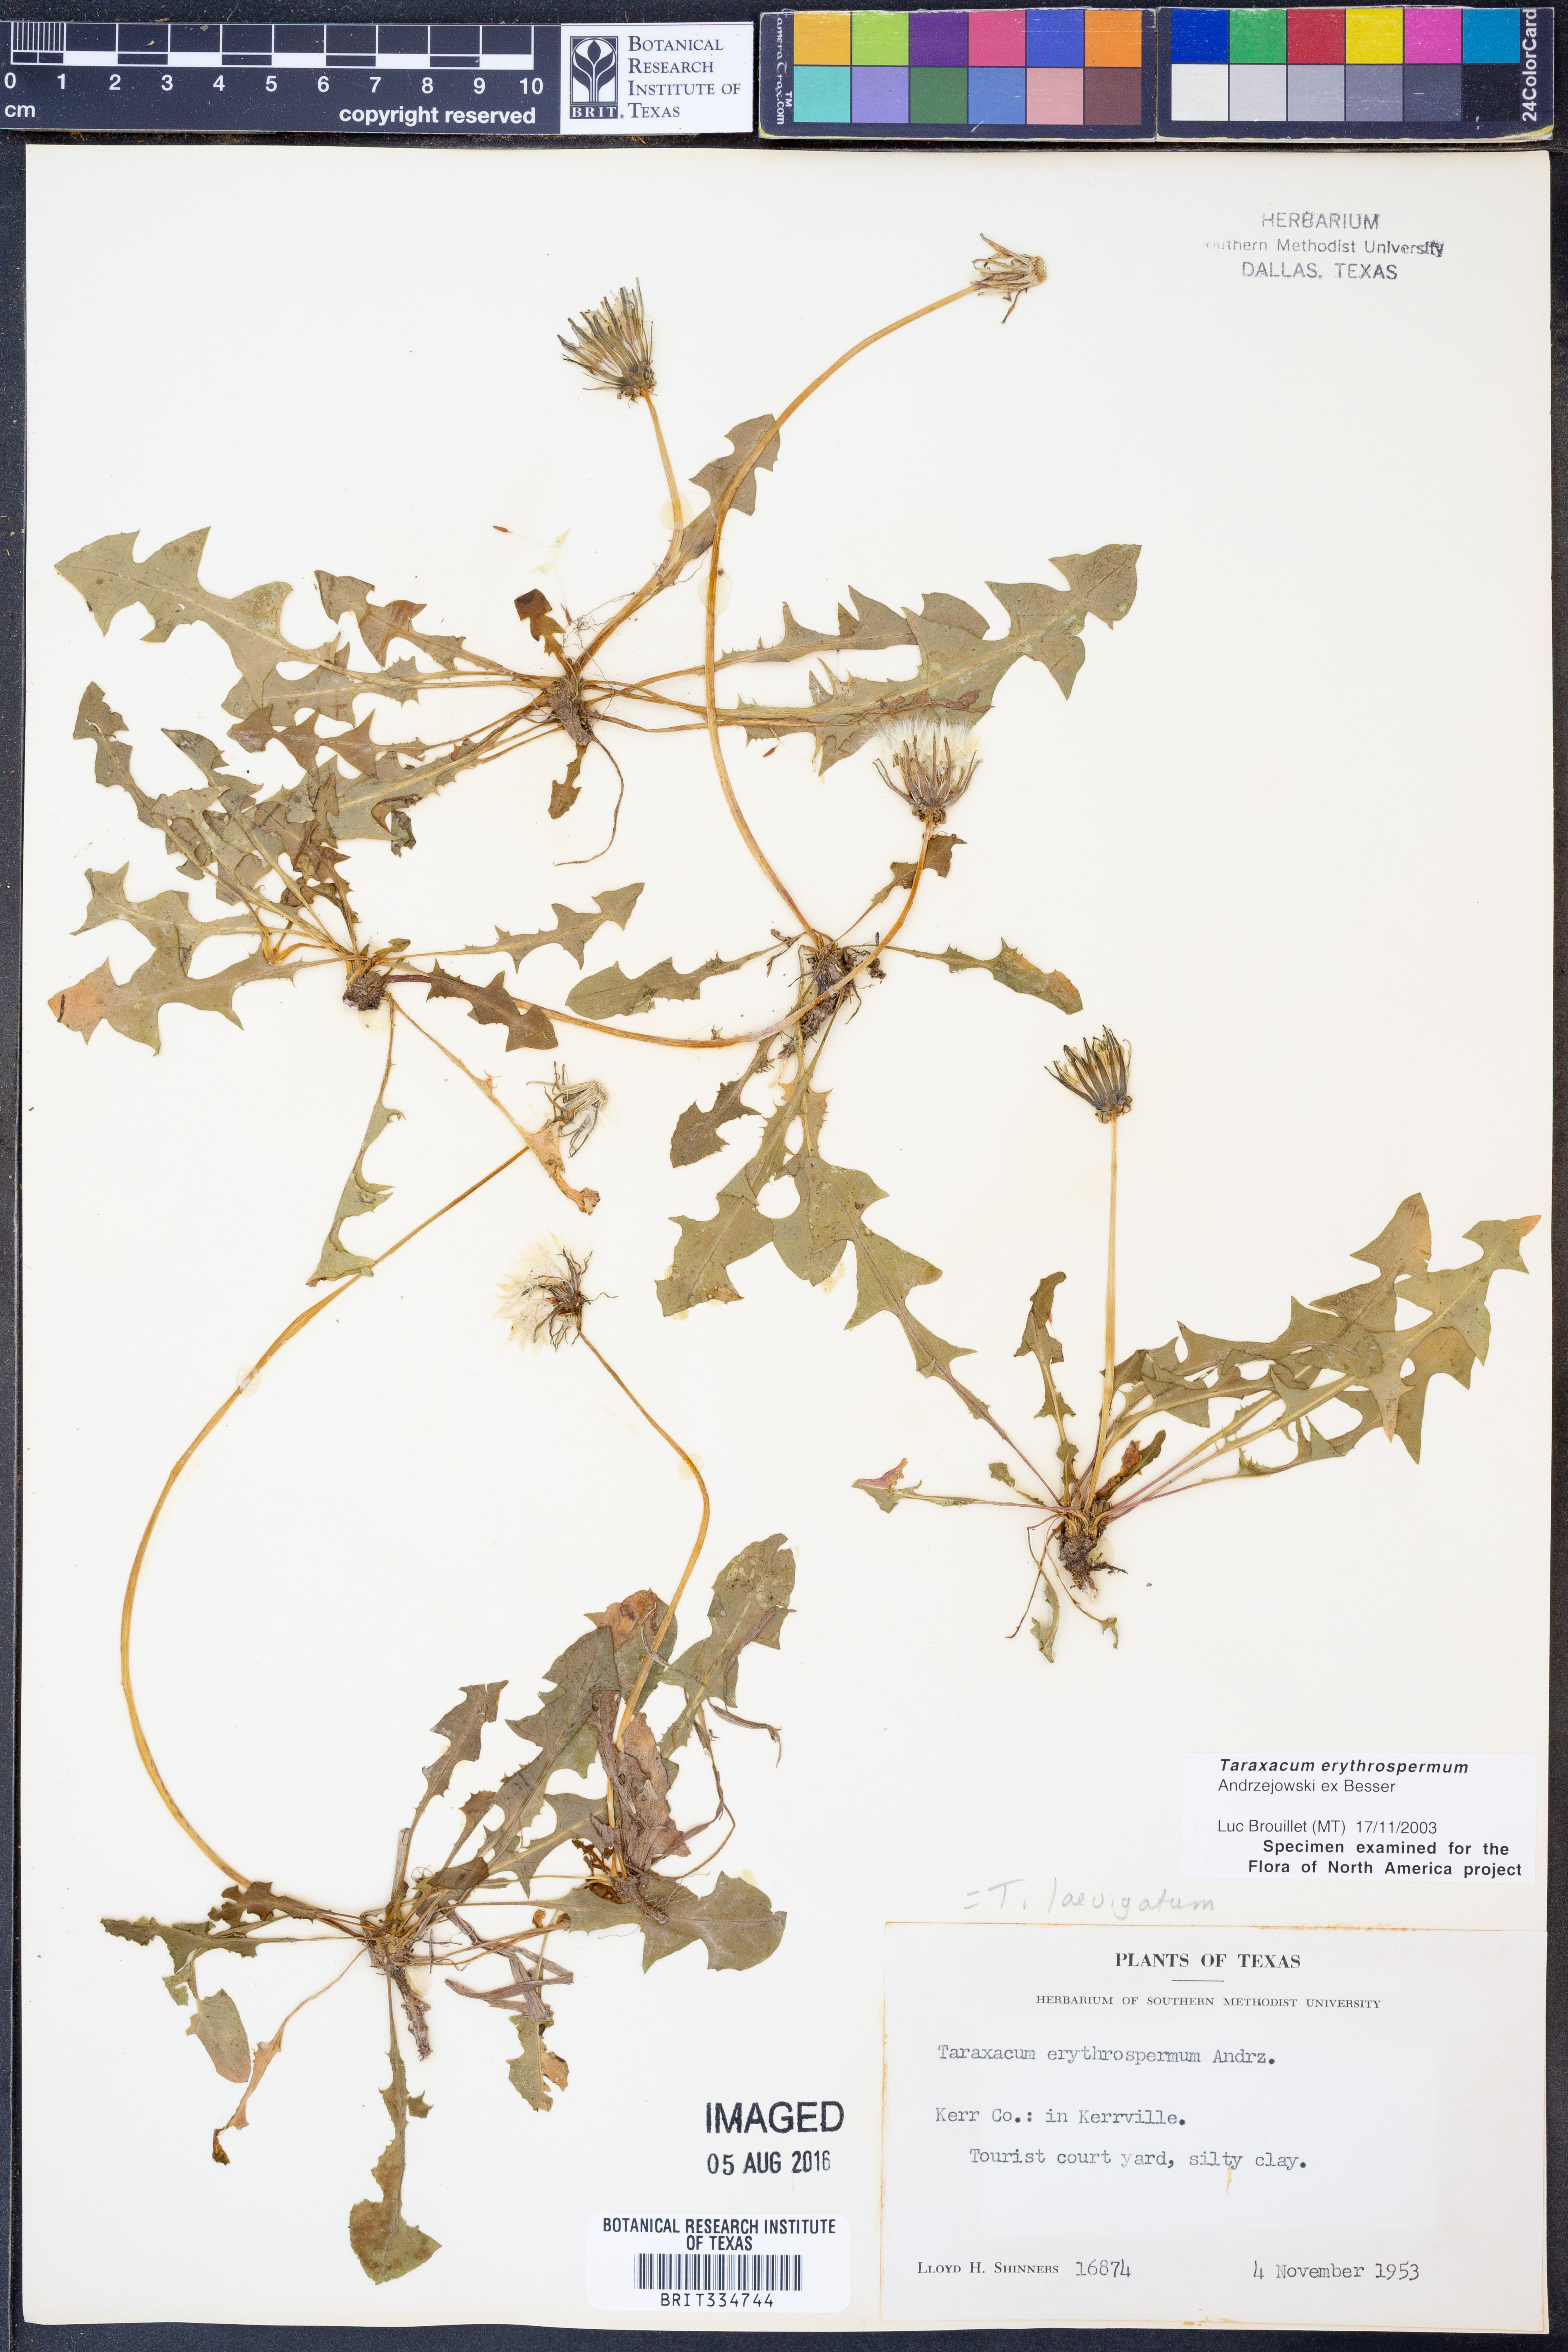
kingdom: Plantae
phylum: Tracheophyta
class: Magnoliopsida
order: Asterales
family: Asteraceae
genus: Taraxacum
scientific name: Taraxacum erythrospermum
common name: Rock dandelion
